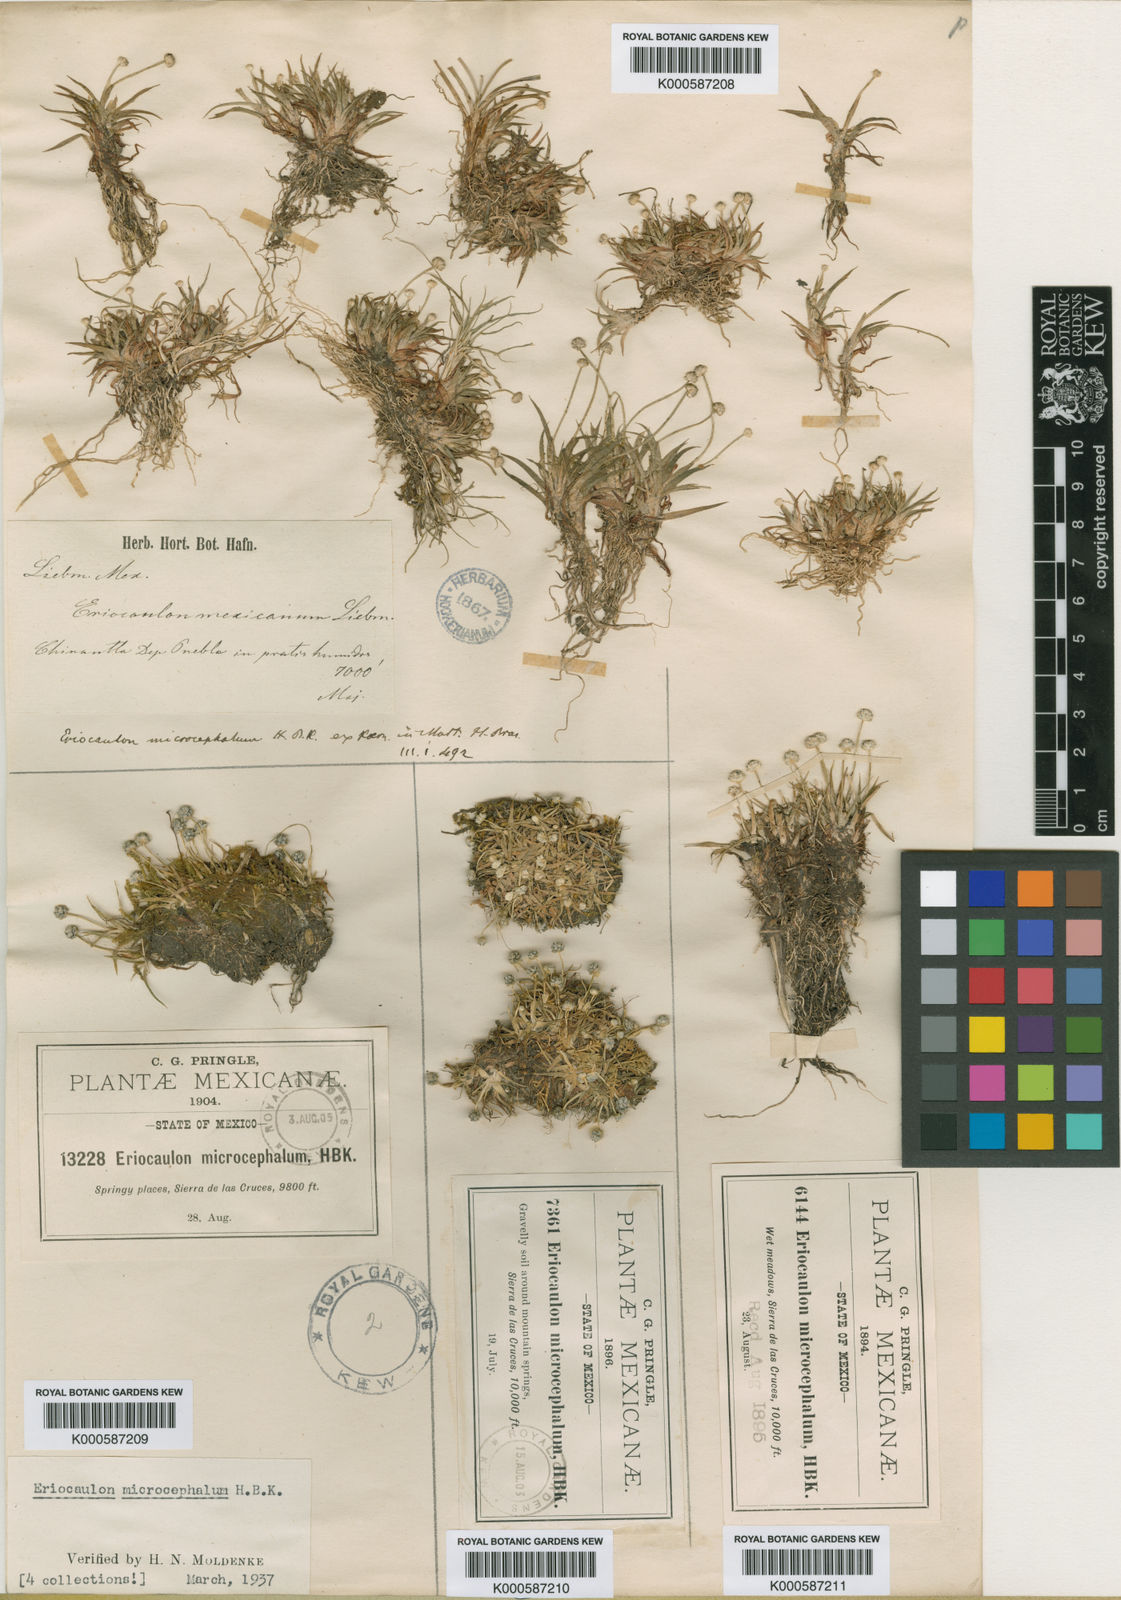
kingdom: Plantae
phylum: Tracheophyta
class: Liliopsida
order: Poales
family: Eriocaulaceae
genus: Eriocaulon
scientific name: Eriocaulon
